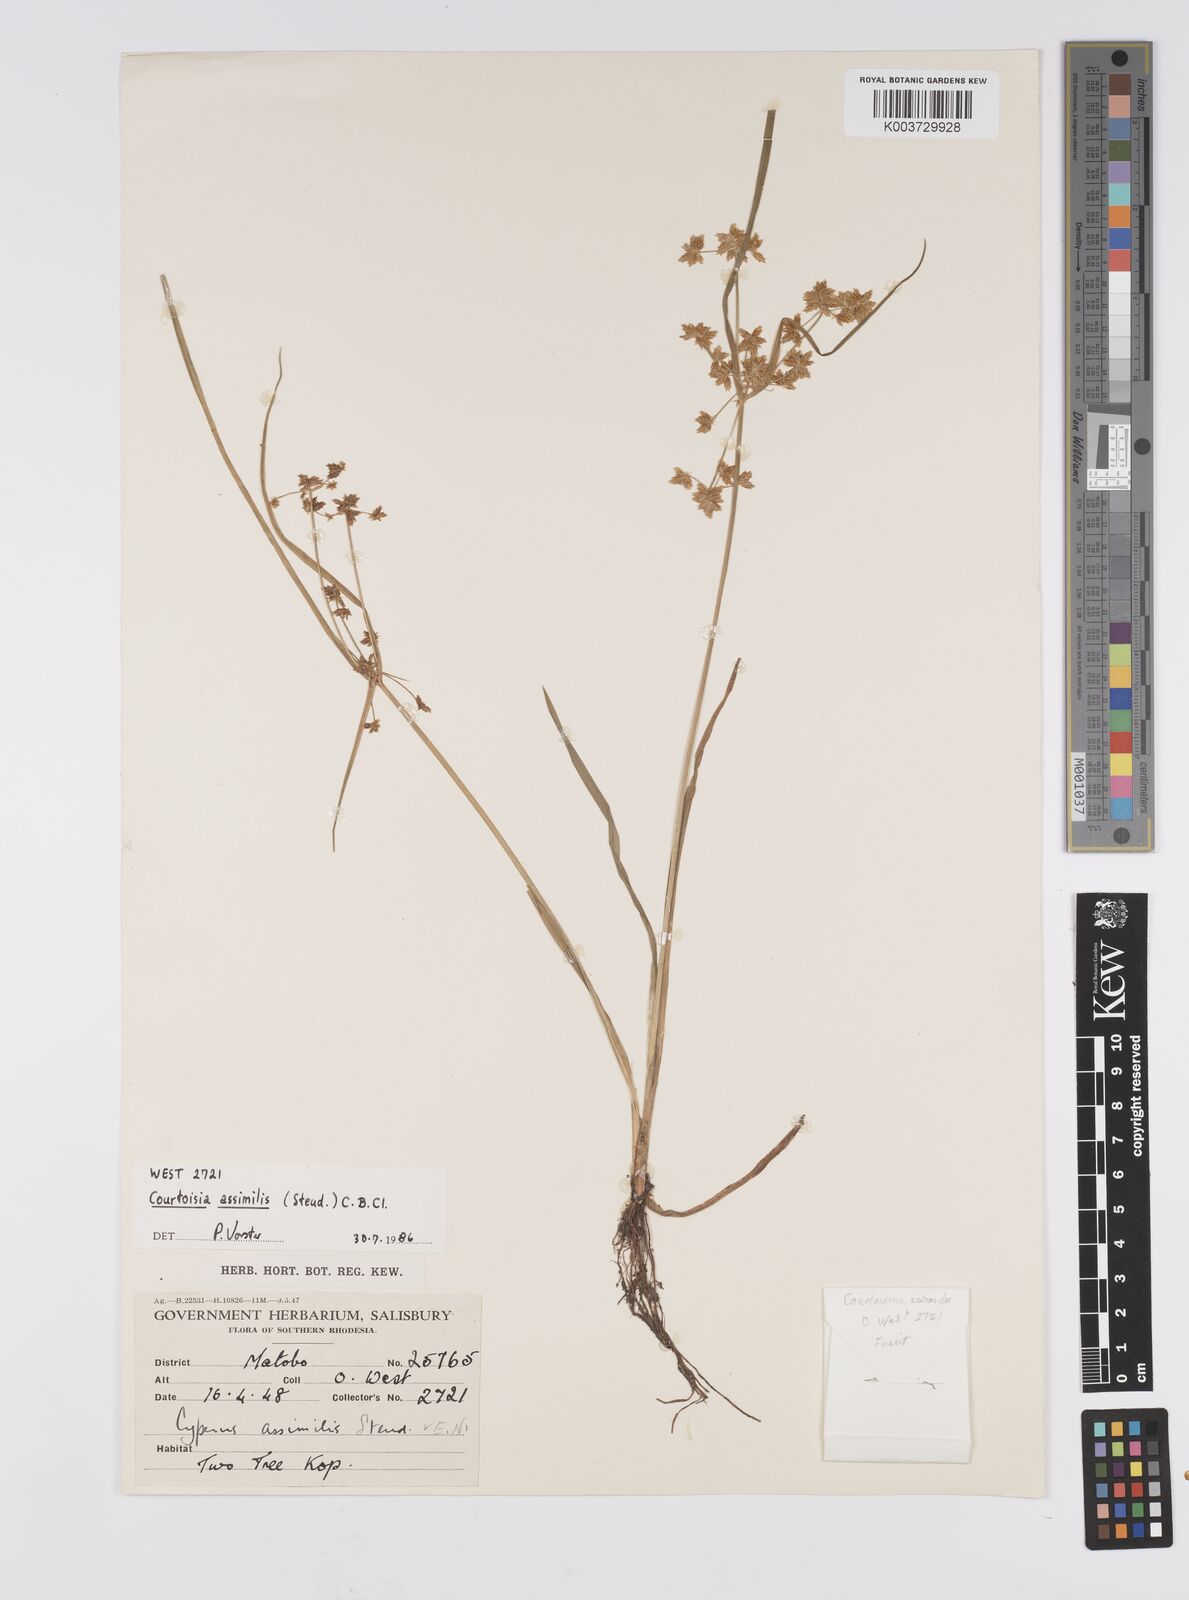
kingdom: Plantae
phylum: Tracheophyta
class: Liliopsida
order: Poales
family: Cyperaceae
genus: Cyperus
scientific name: Cyperus assimilis
